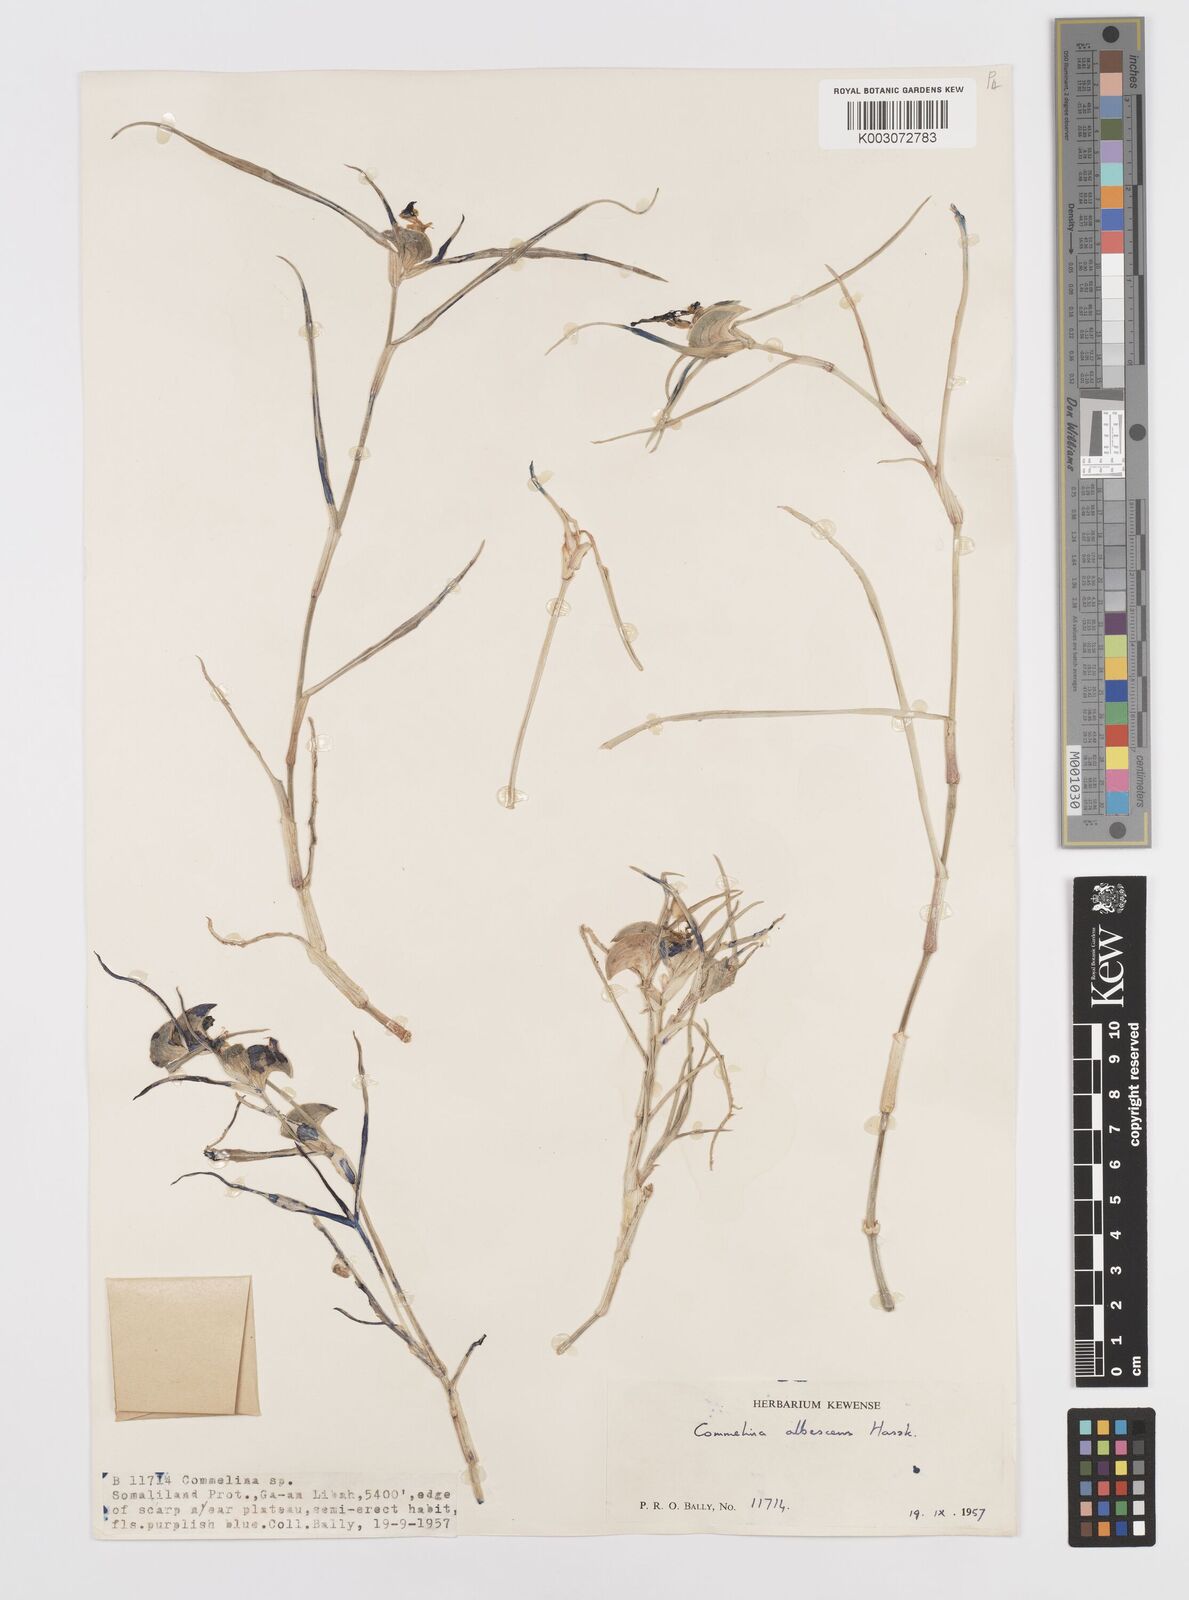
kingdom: Plantae
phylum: Tracheophyta
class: Liliopsida
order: Commelinales
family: Commelinaceae
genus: Commelina
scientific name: Commelina albescens
